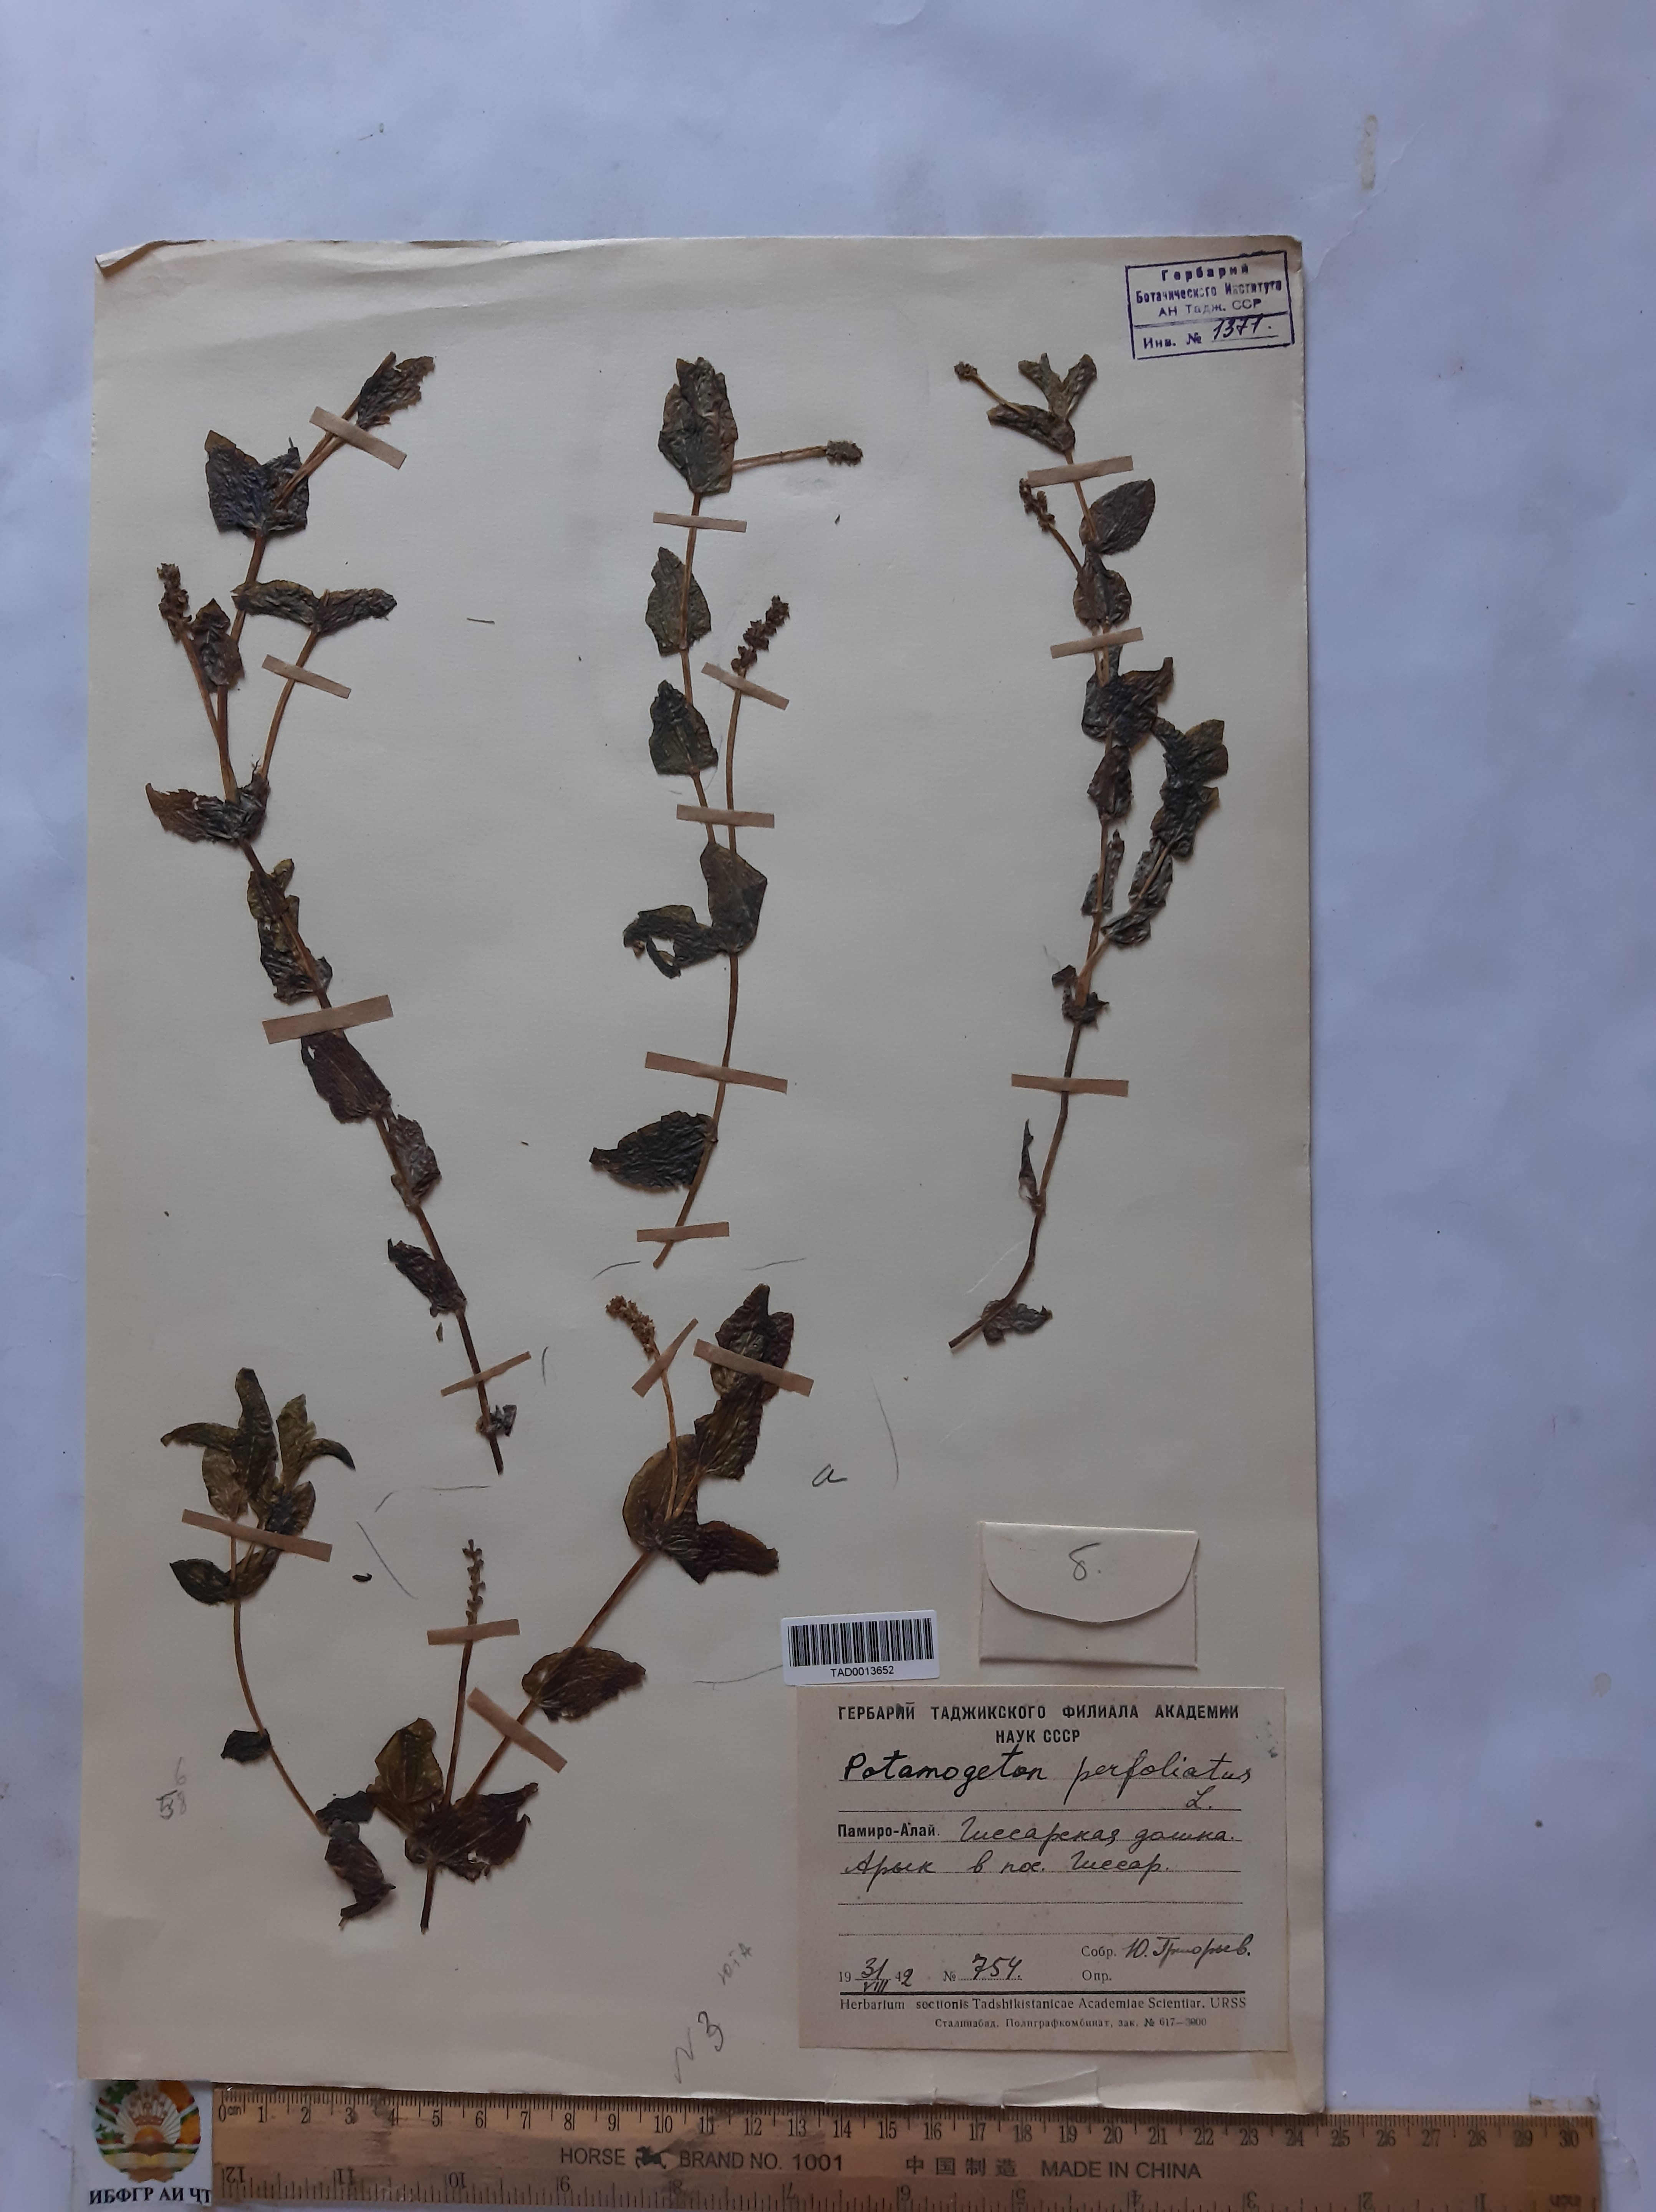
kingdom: Plantae
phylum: Tracheophyta
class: Liliopsida
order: Alismatales
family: Hydrocharitaceae
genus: Najas
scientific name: Najas graminea
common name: Ricefield waternymph
